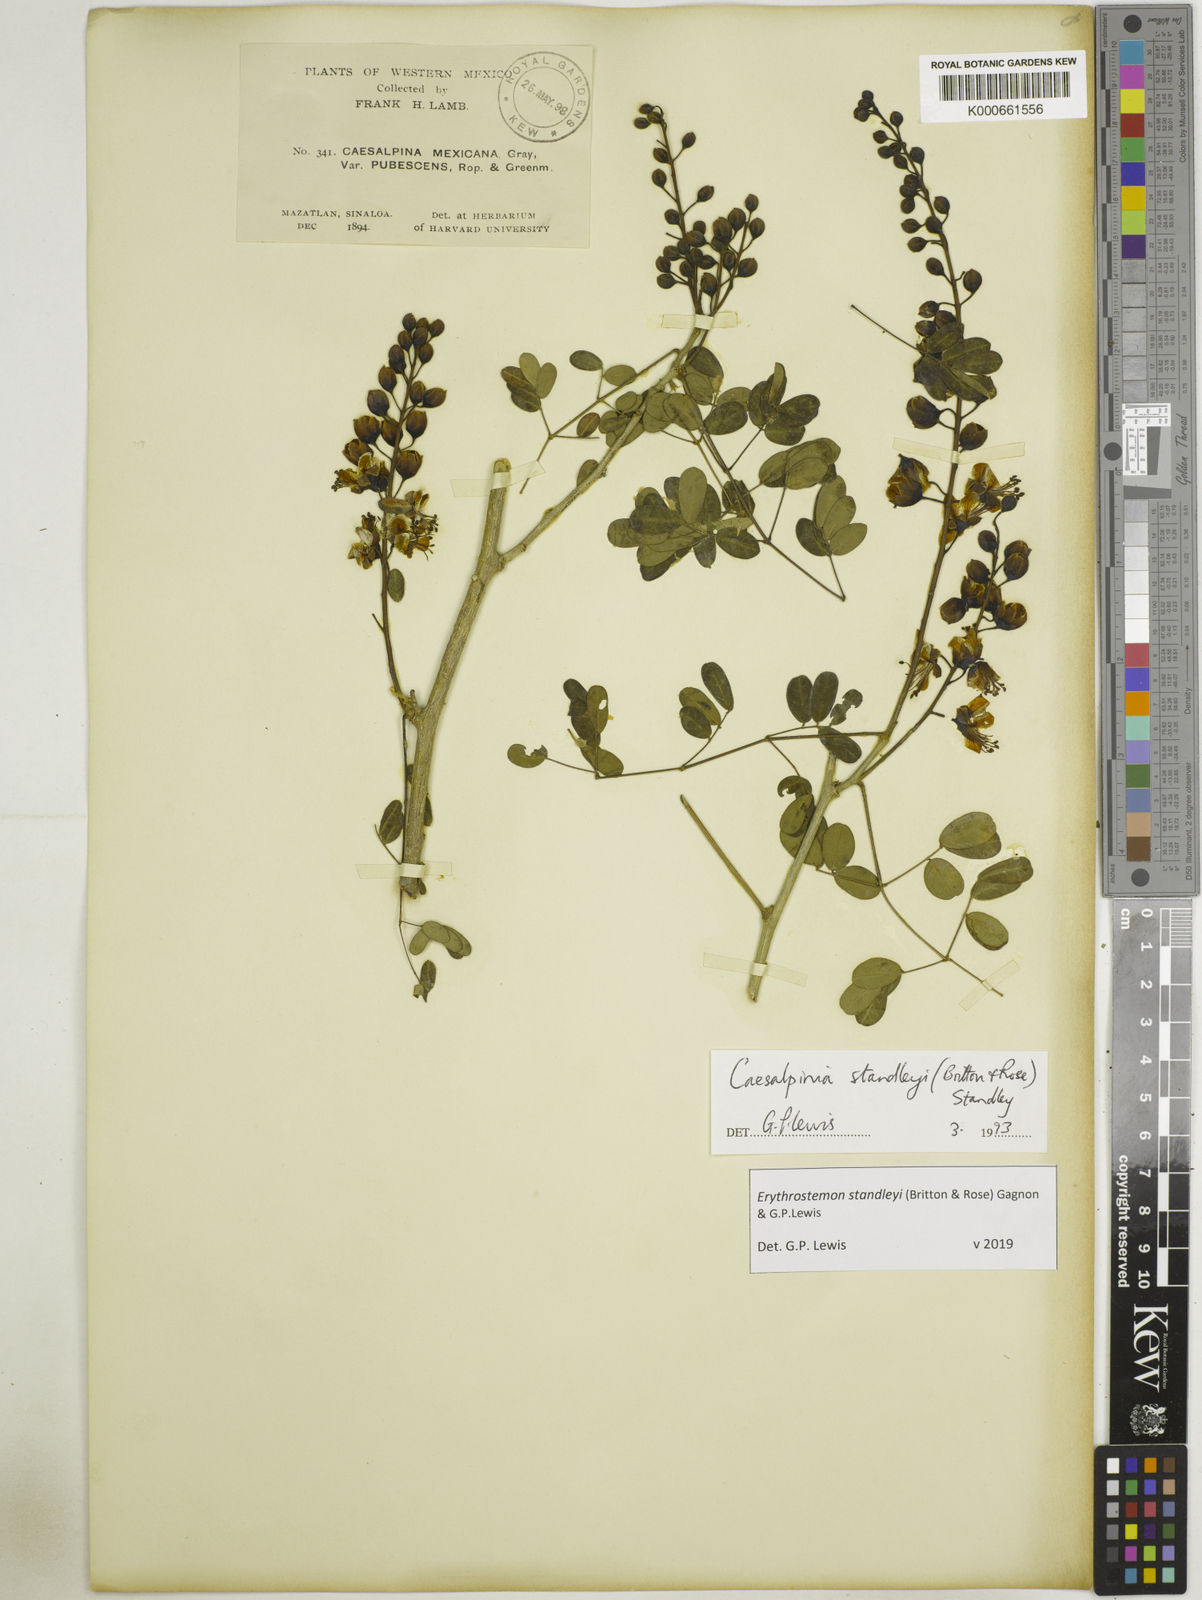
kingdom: Plantae
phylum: Tracheophyta
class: Magnoliopsida
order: Fabales
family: Fabaceae
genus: Erythrostemon
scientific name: Erythrostemon standleyi
